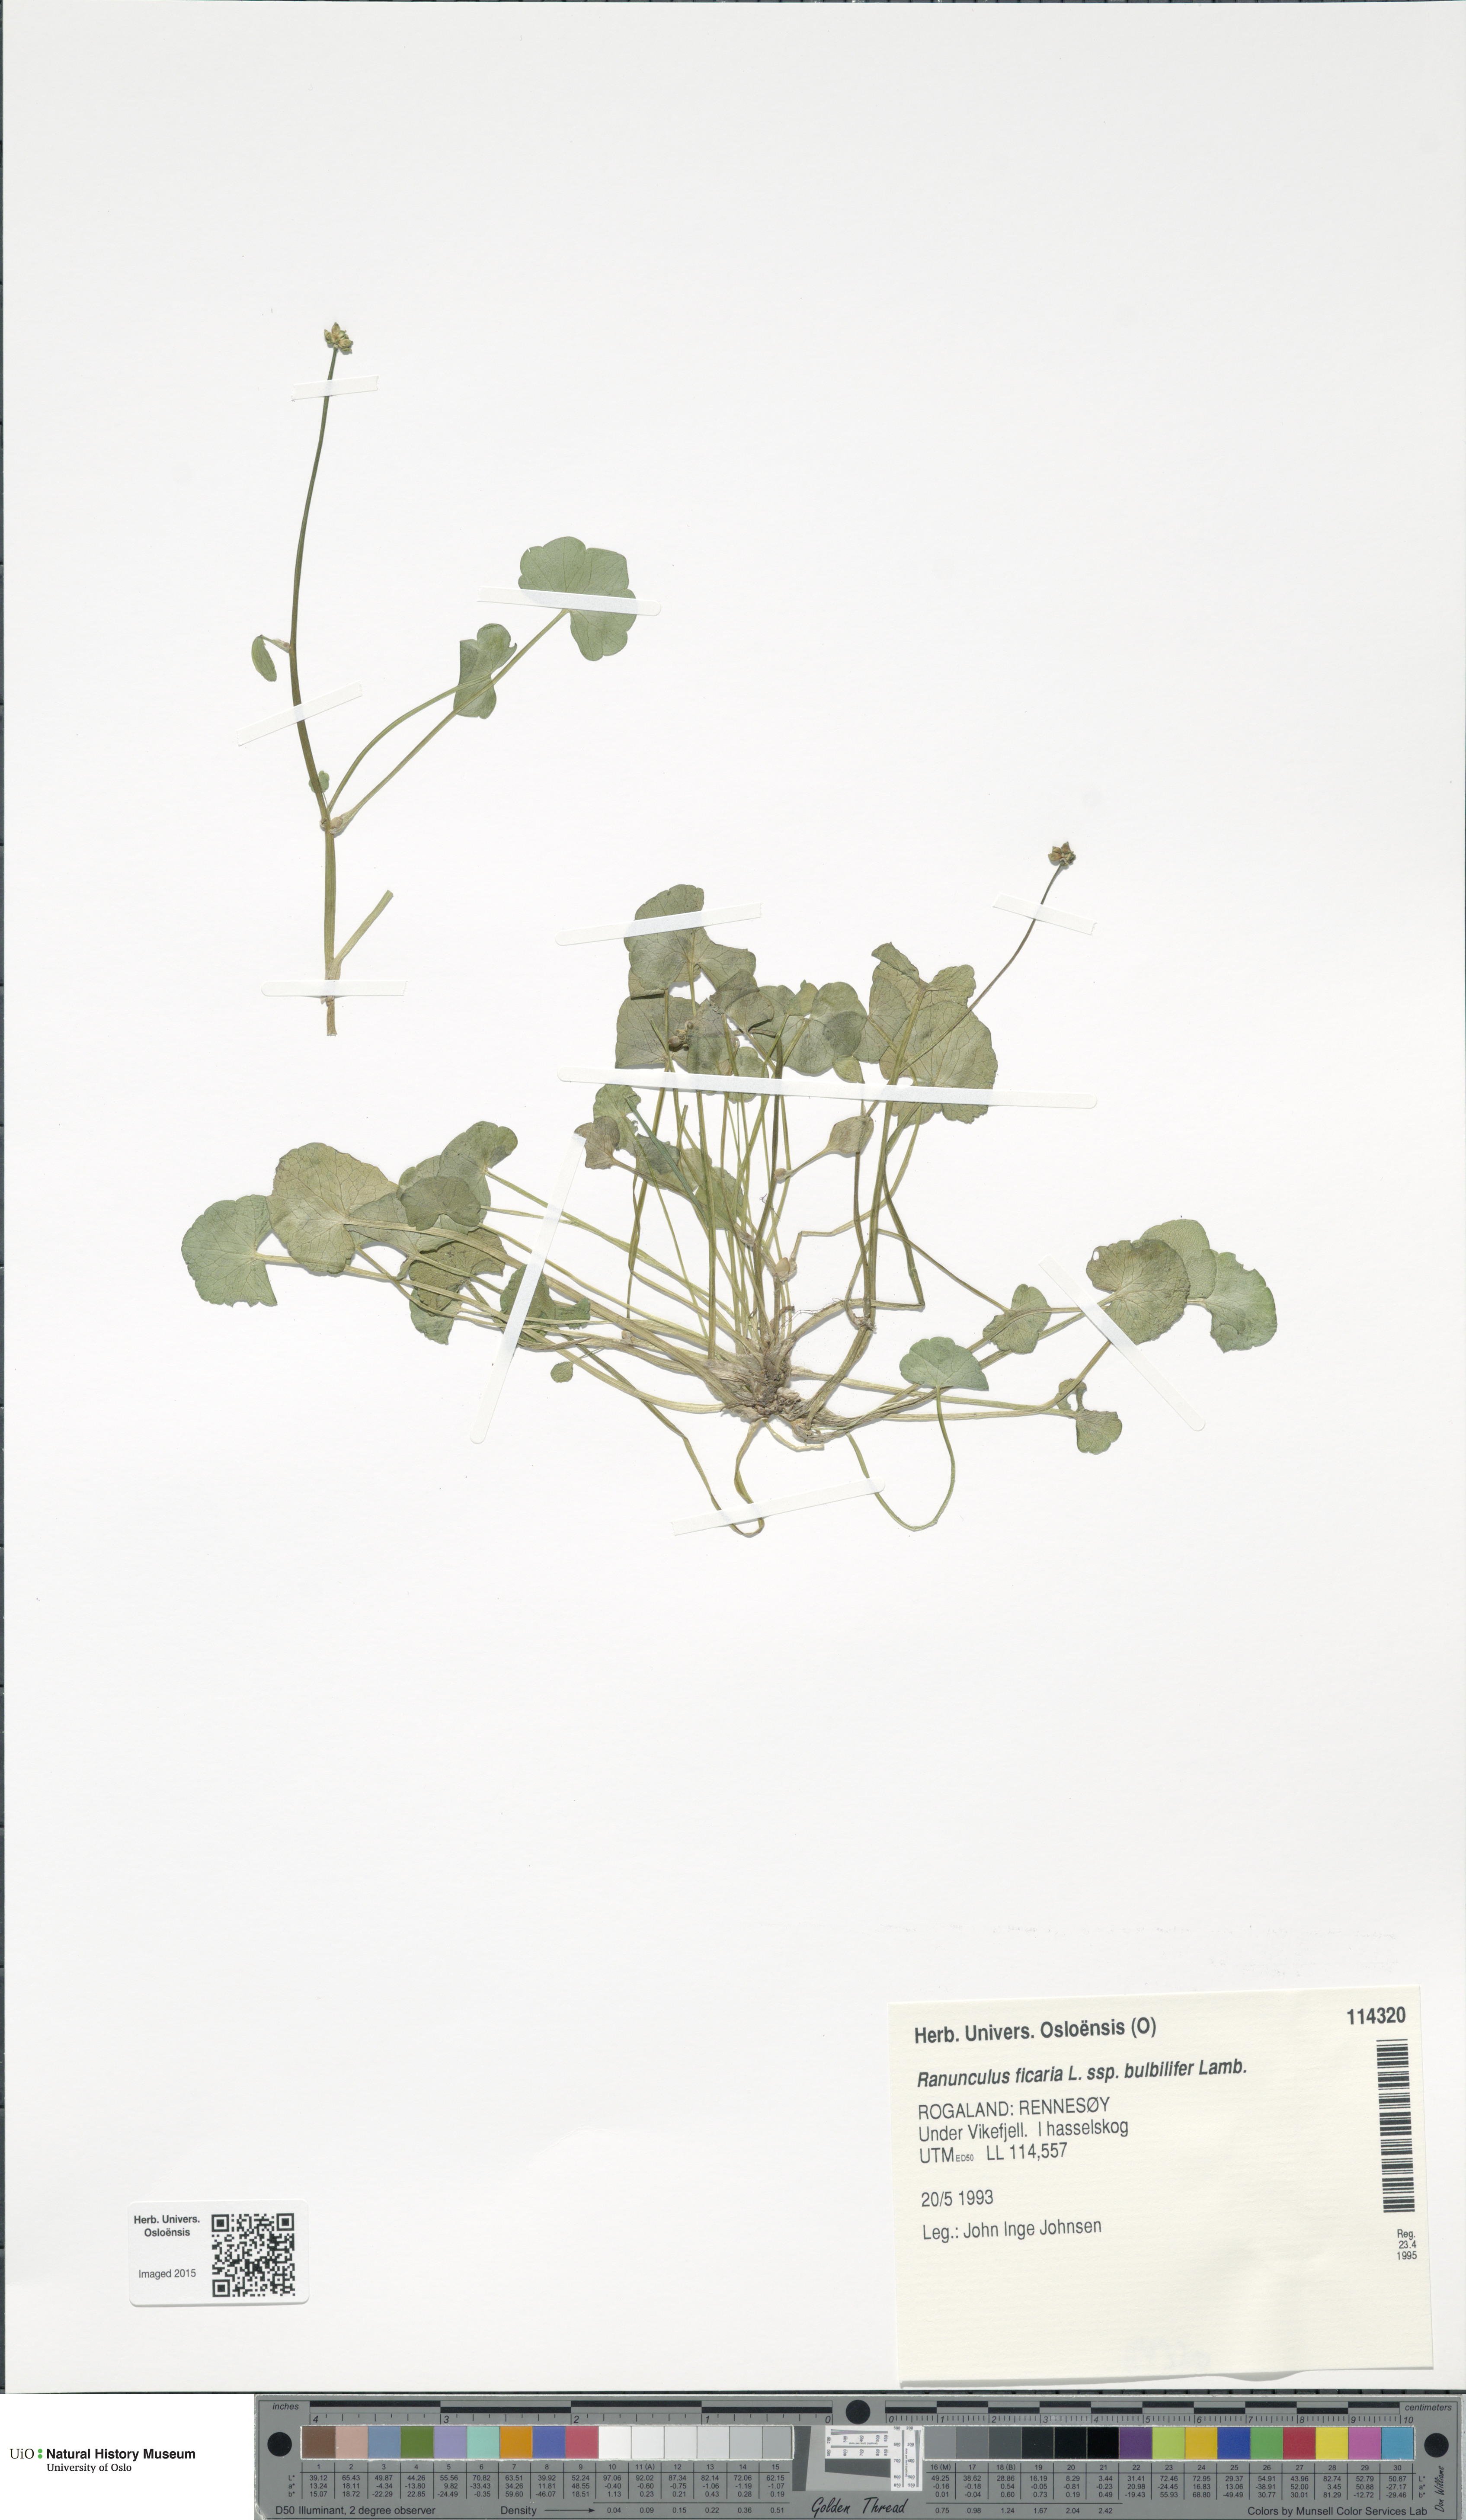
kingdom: Plantae
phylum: Tracheophyta
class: Magnoliopsida
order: Ranunculales
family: Ranunculaceae
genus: Ficaria
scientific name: Ficaria verna
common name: Lesser celandine
